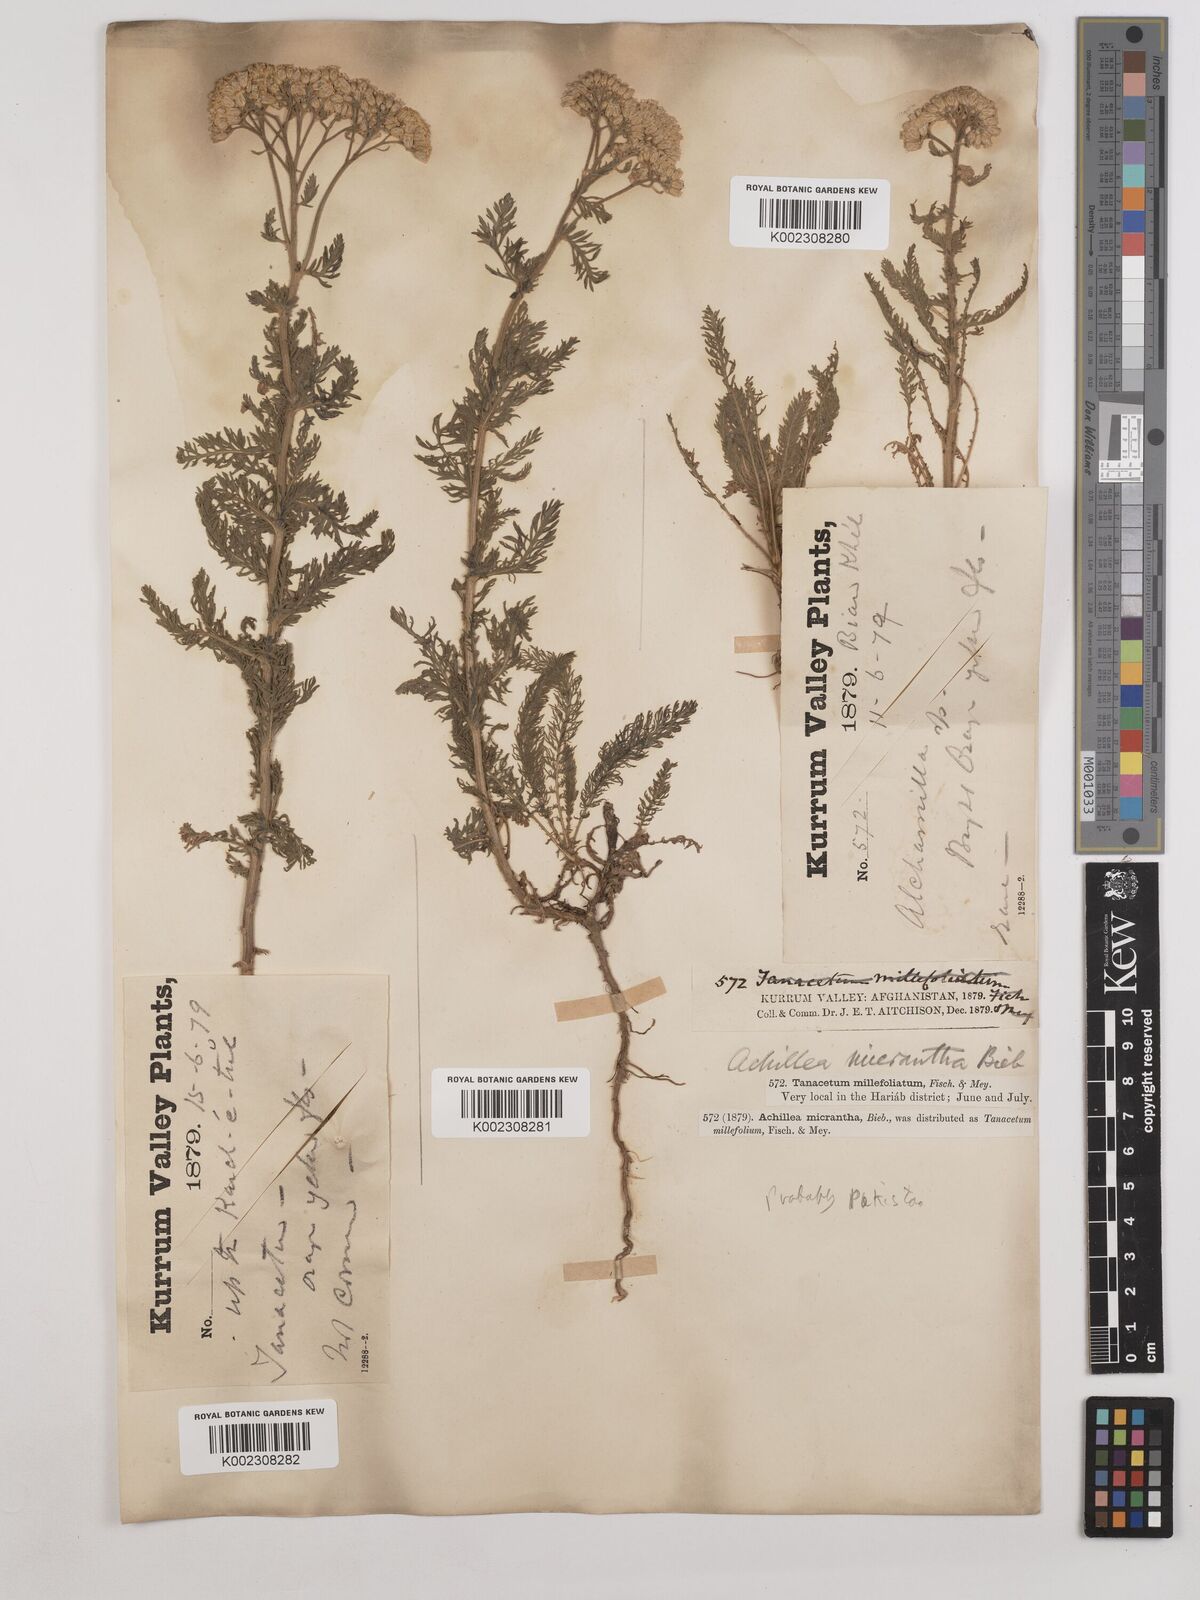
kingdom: Plantae
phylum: Tracheophyta
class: Magnoliopsida
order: Asterales
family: Asteraceae
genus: Achillea
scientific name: Achillea arabica
